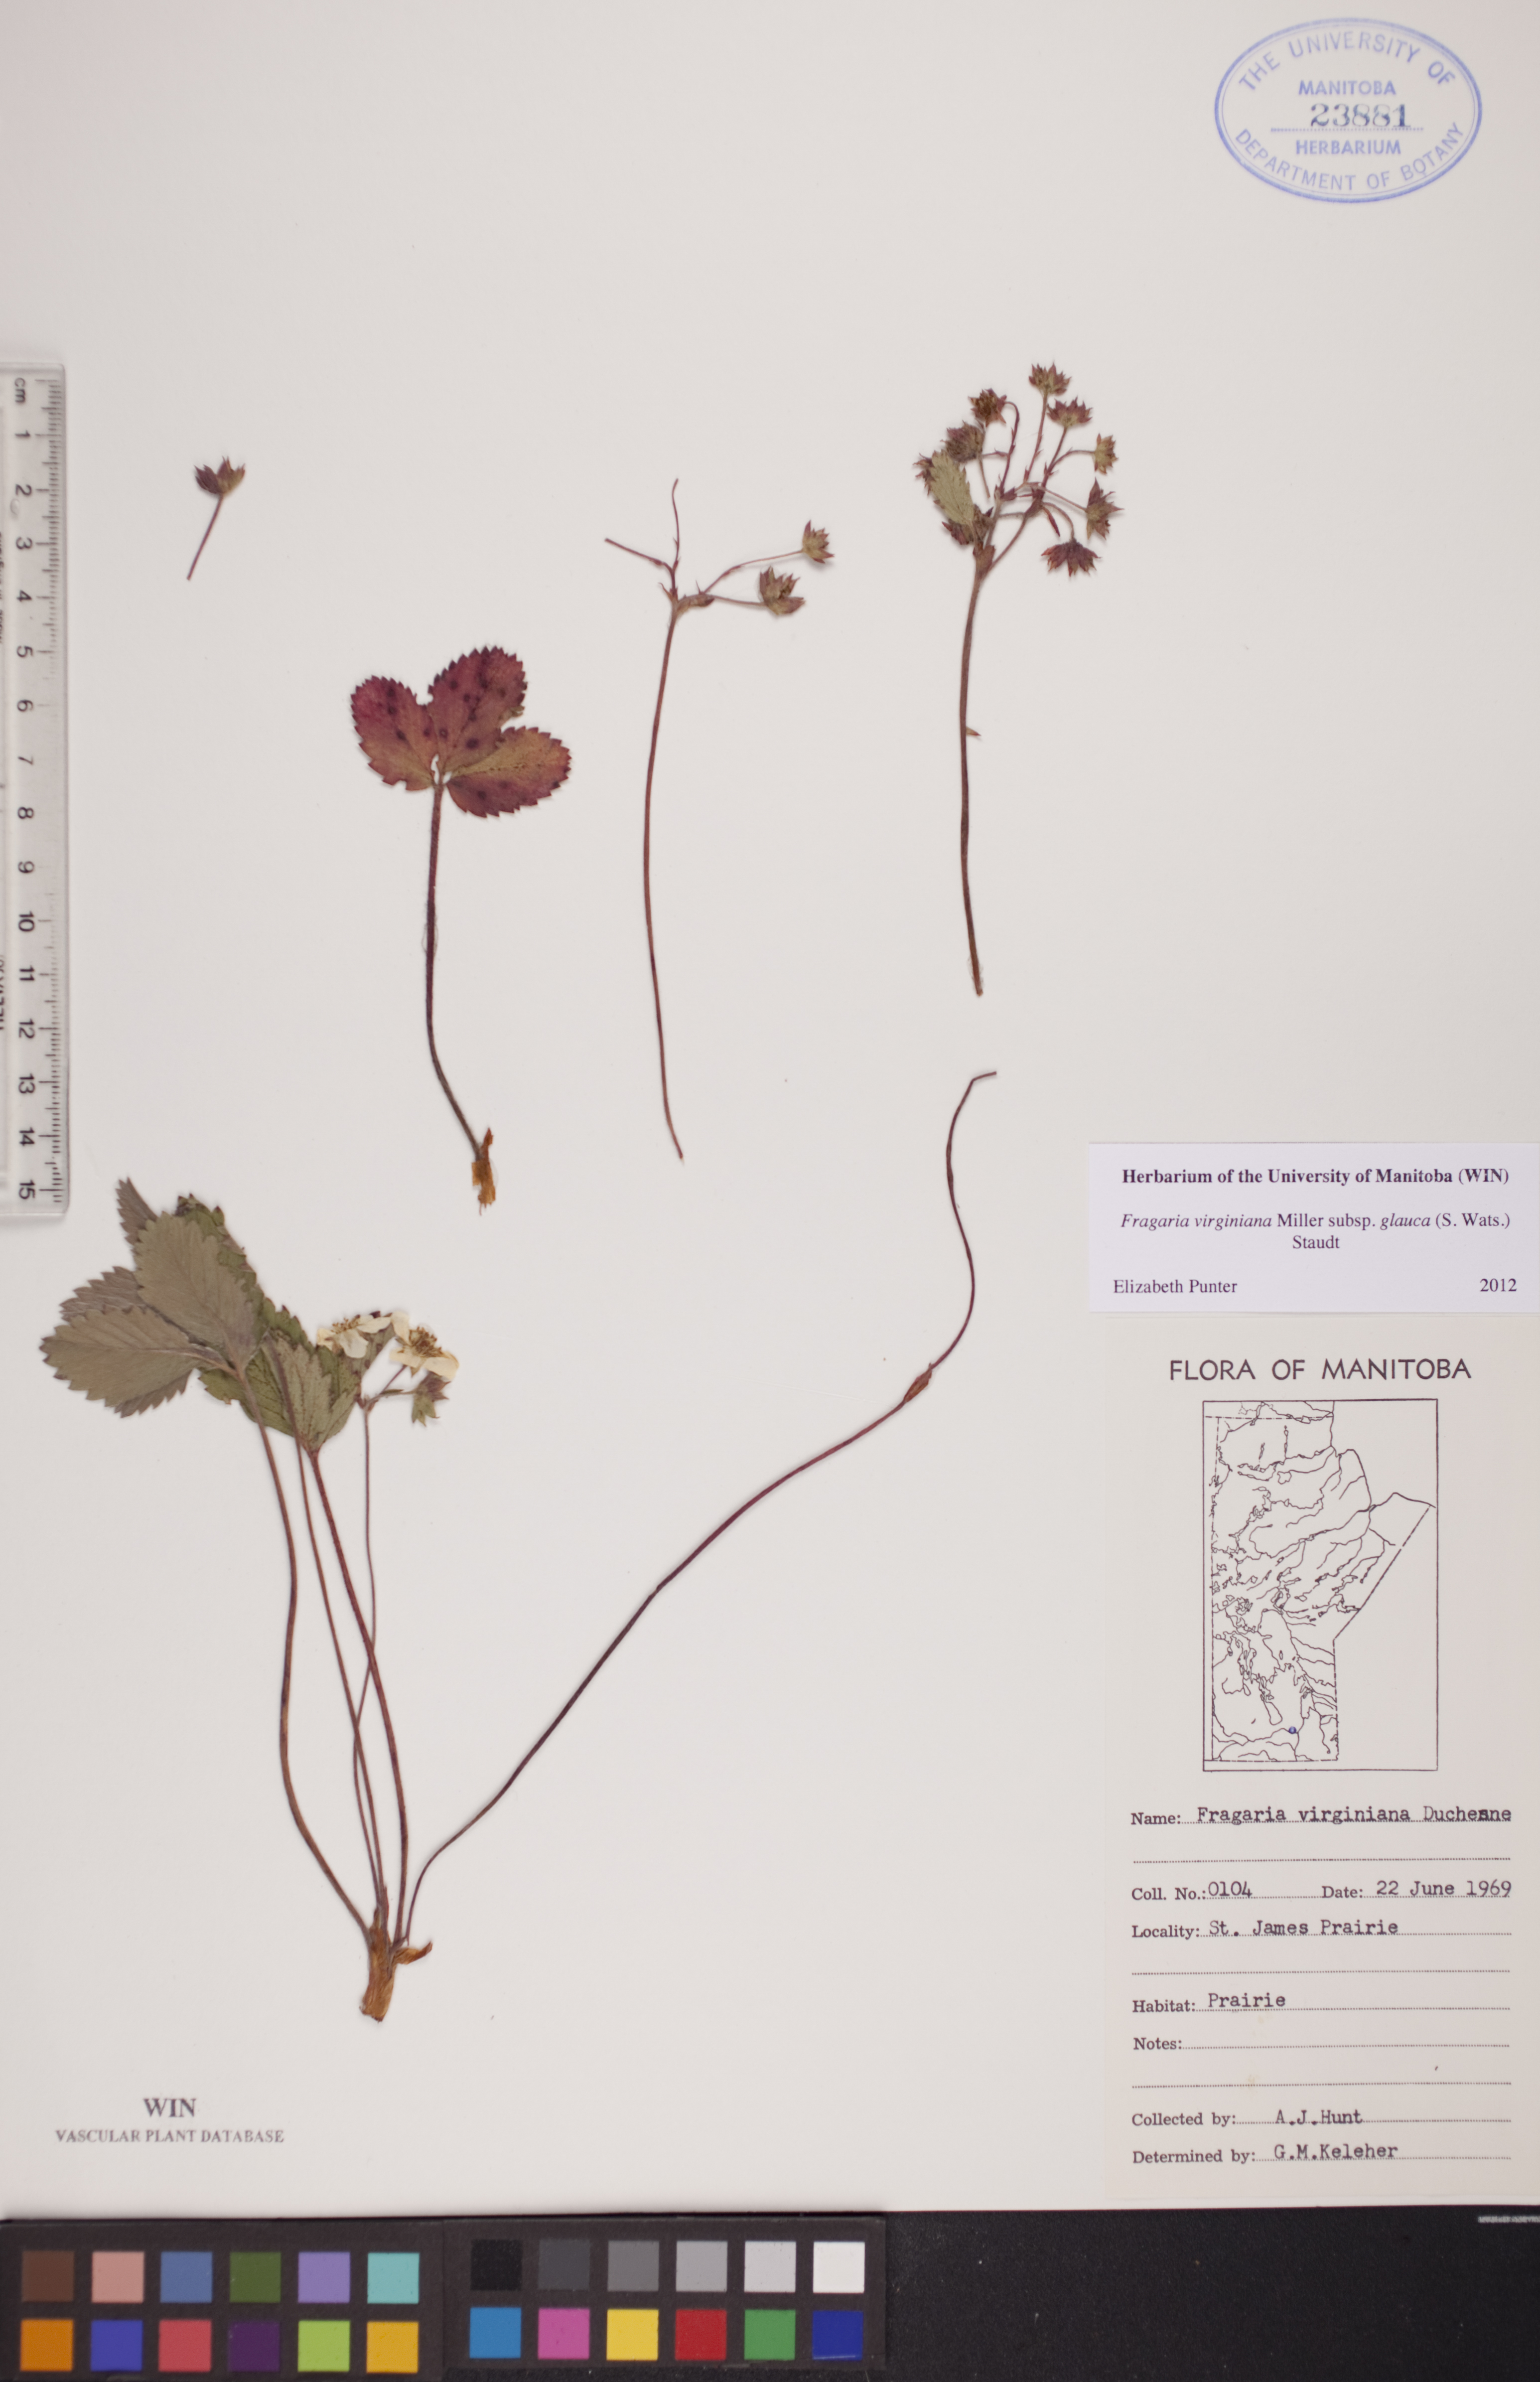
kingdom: Plantae
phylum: Tracheophyta
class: Magnoliopsida
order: Rosales
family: Rosaceae
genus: Fragaria
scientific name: Fragaria virginiana
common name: Thickleaved wild strawberry
